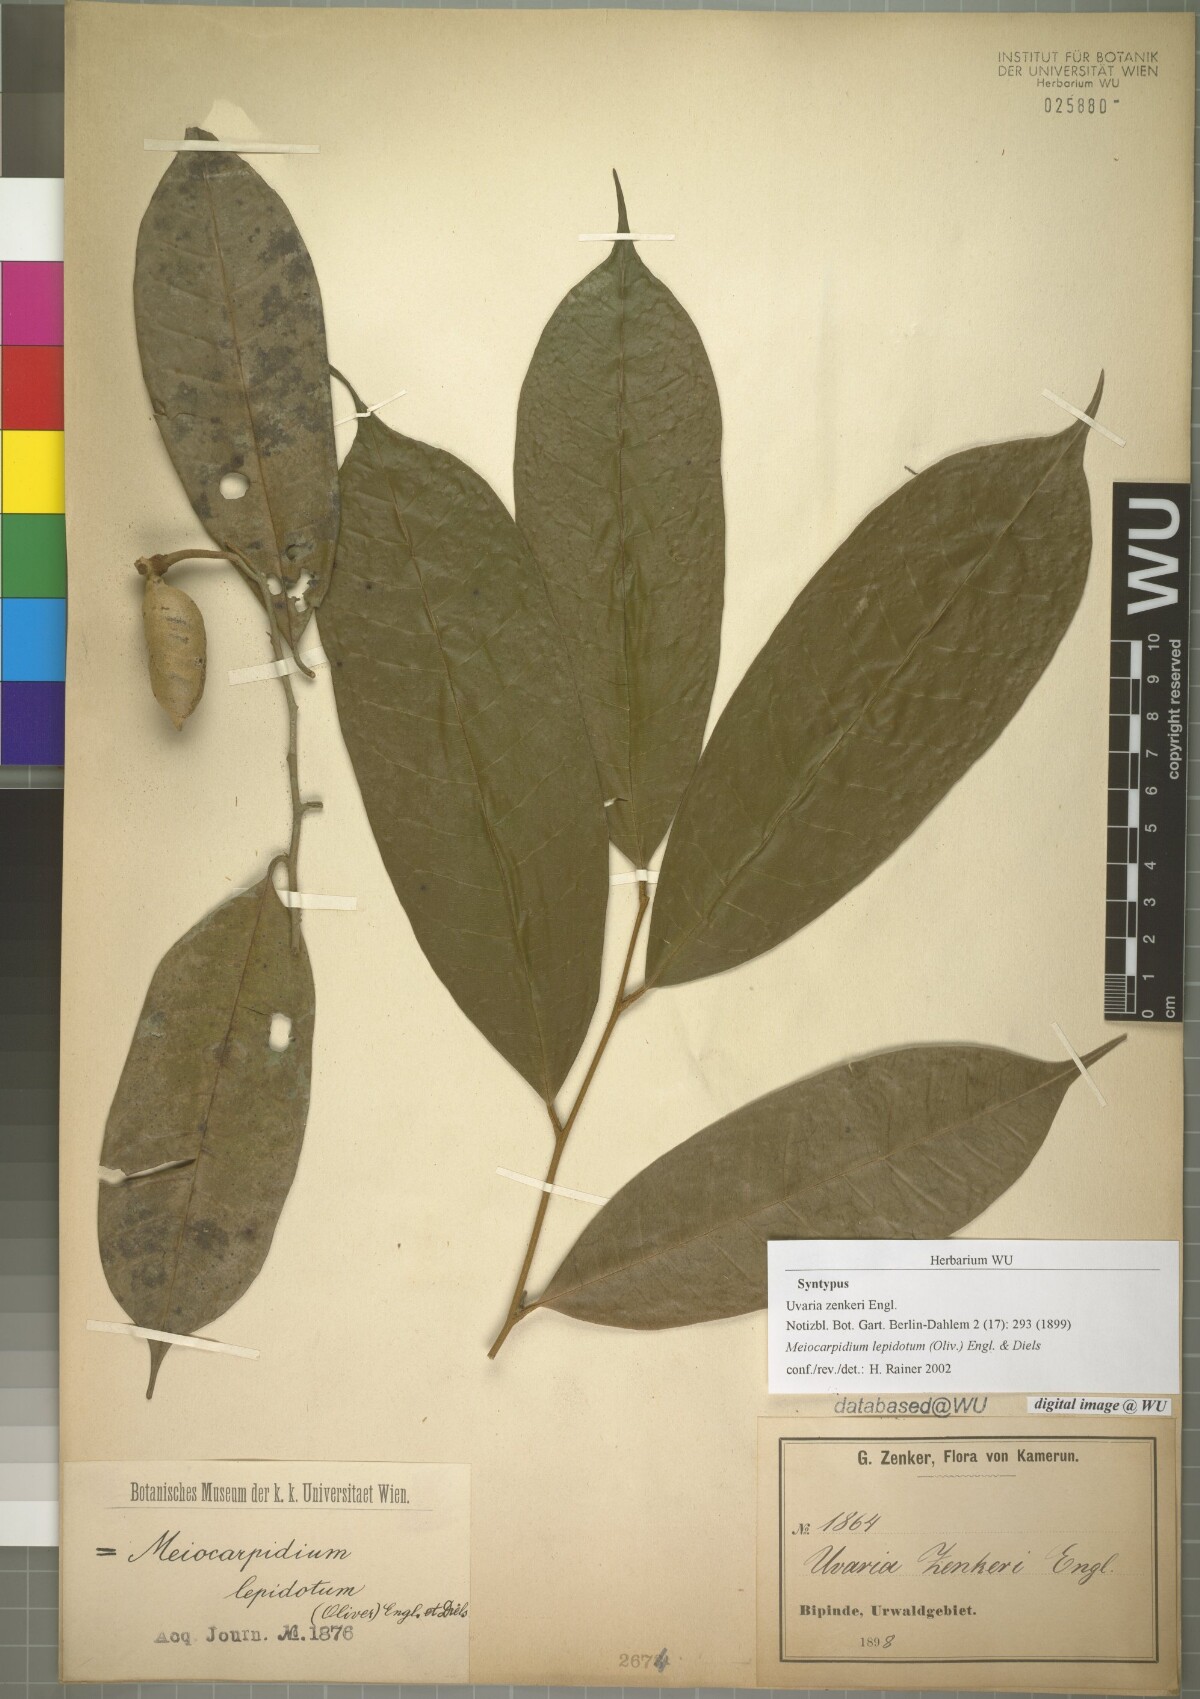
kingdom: Plantae
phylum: Tracheophyta
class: Magnoliopsida
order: Magnoliales
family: Annonaceae
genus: Meiocarpidium
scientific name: Meiocarpidium lepidotum
